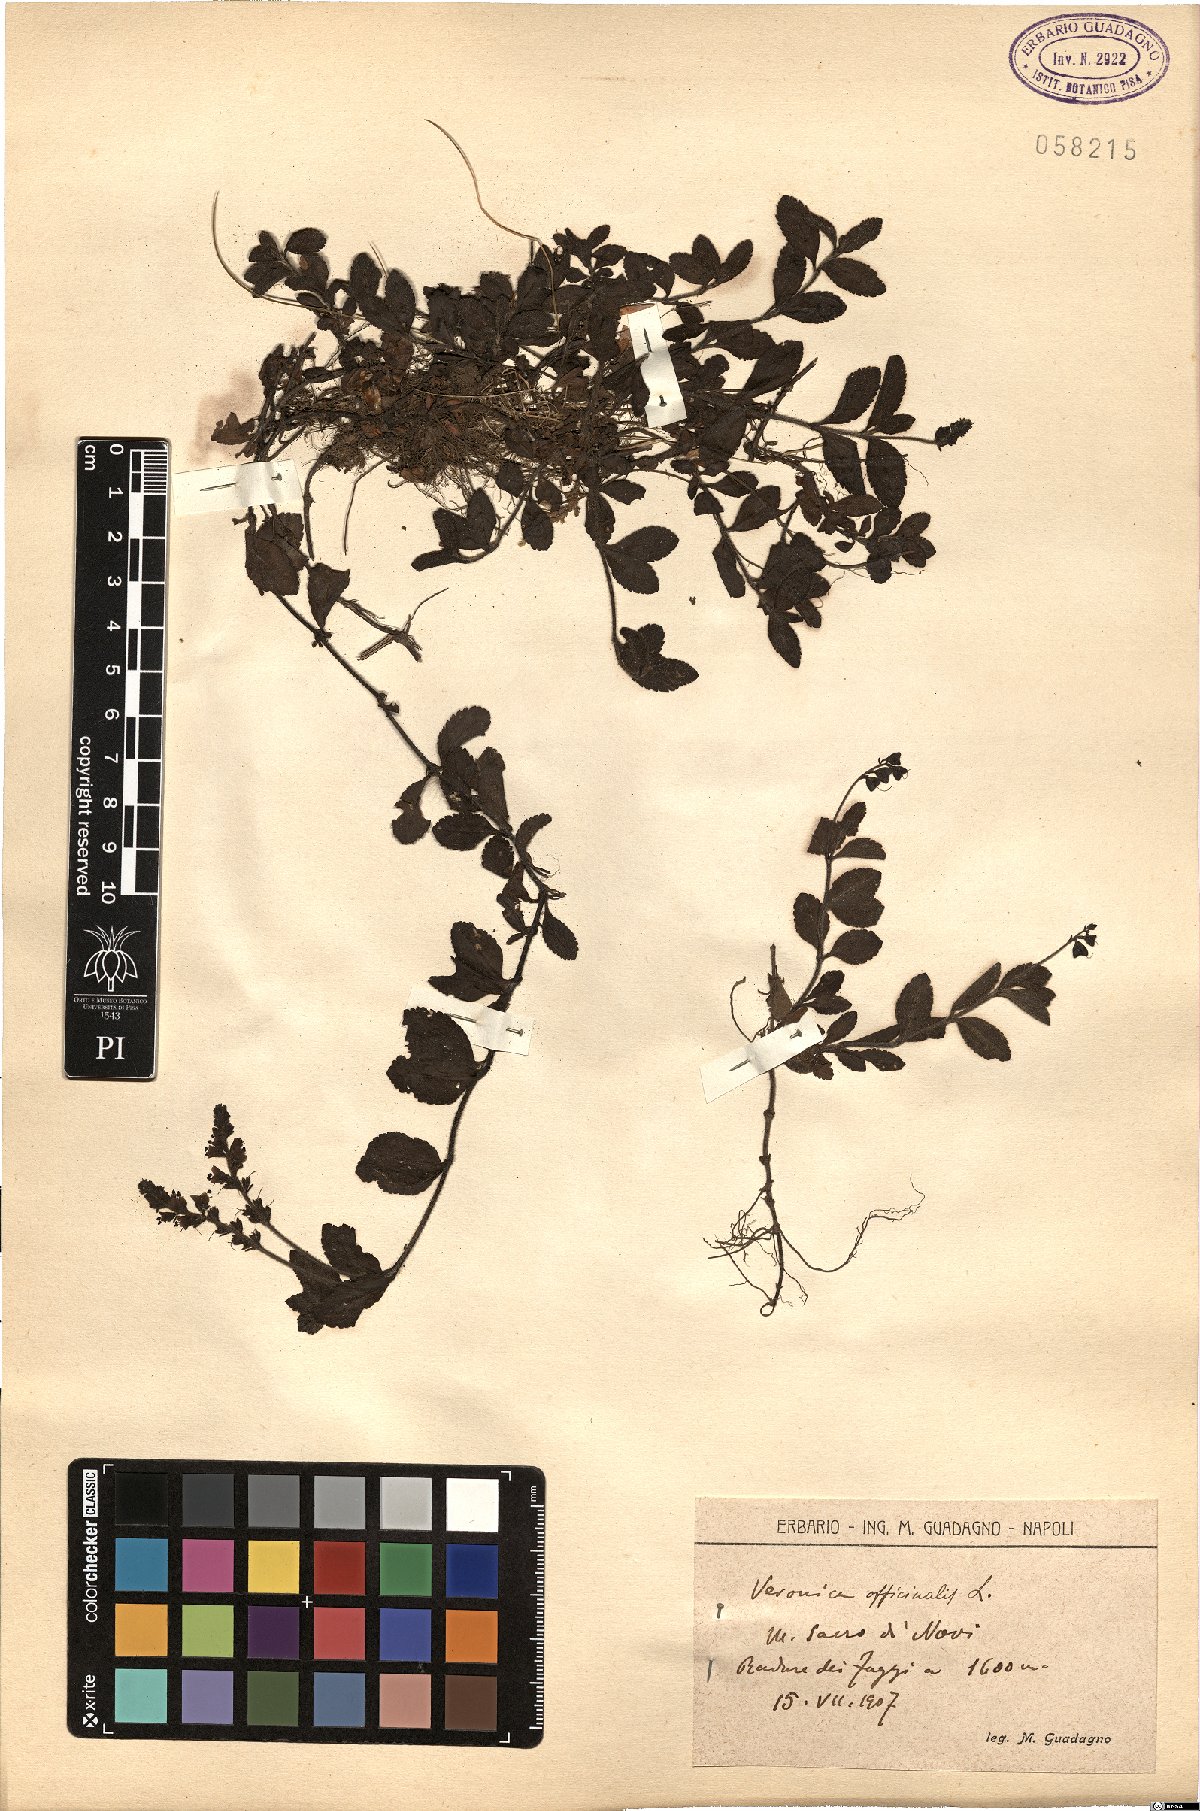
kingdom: Plantae
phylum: Tracheophyta
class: Magnoliopsida
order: Lamiales
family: Plantaginaceae
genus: Veronica
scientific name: Veronica officinalis
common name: Common speedwell
